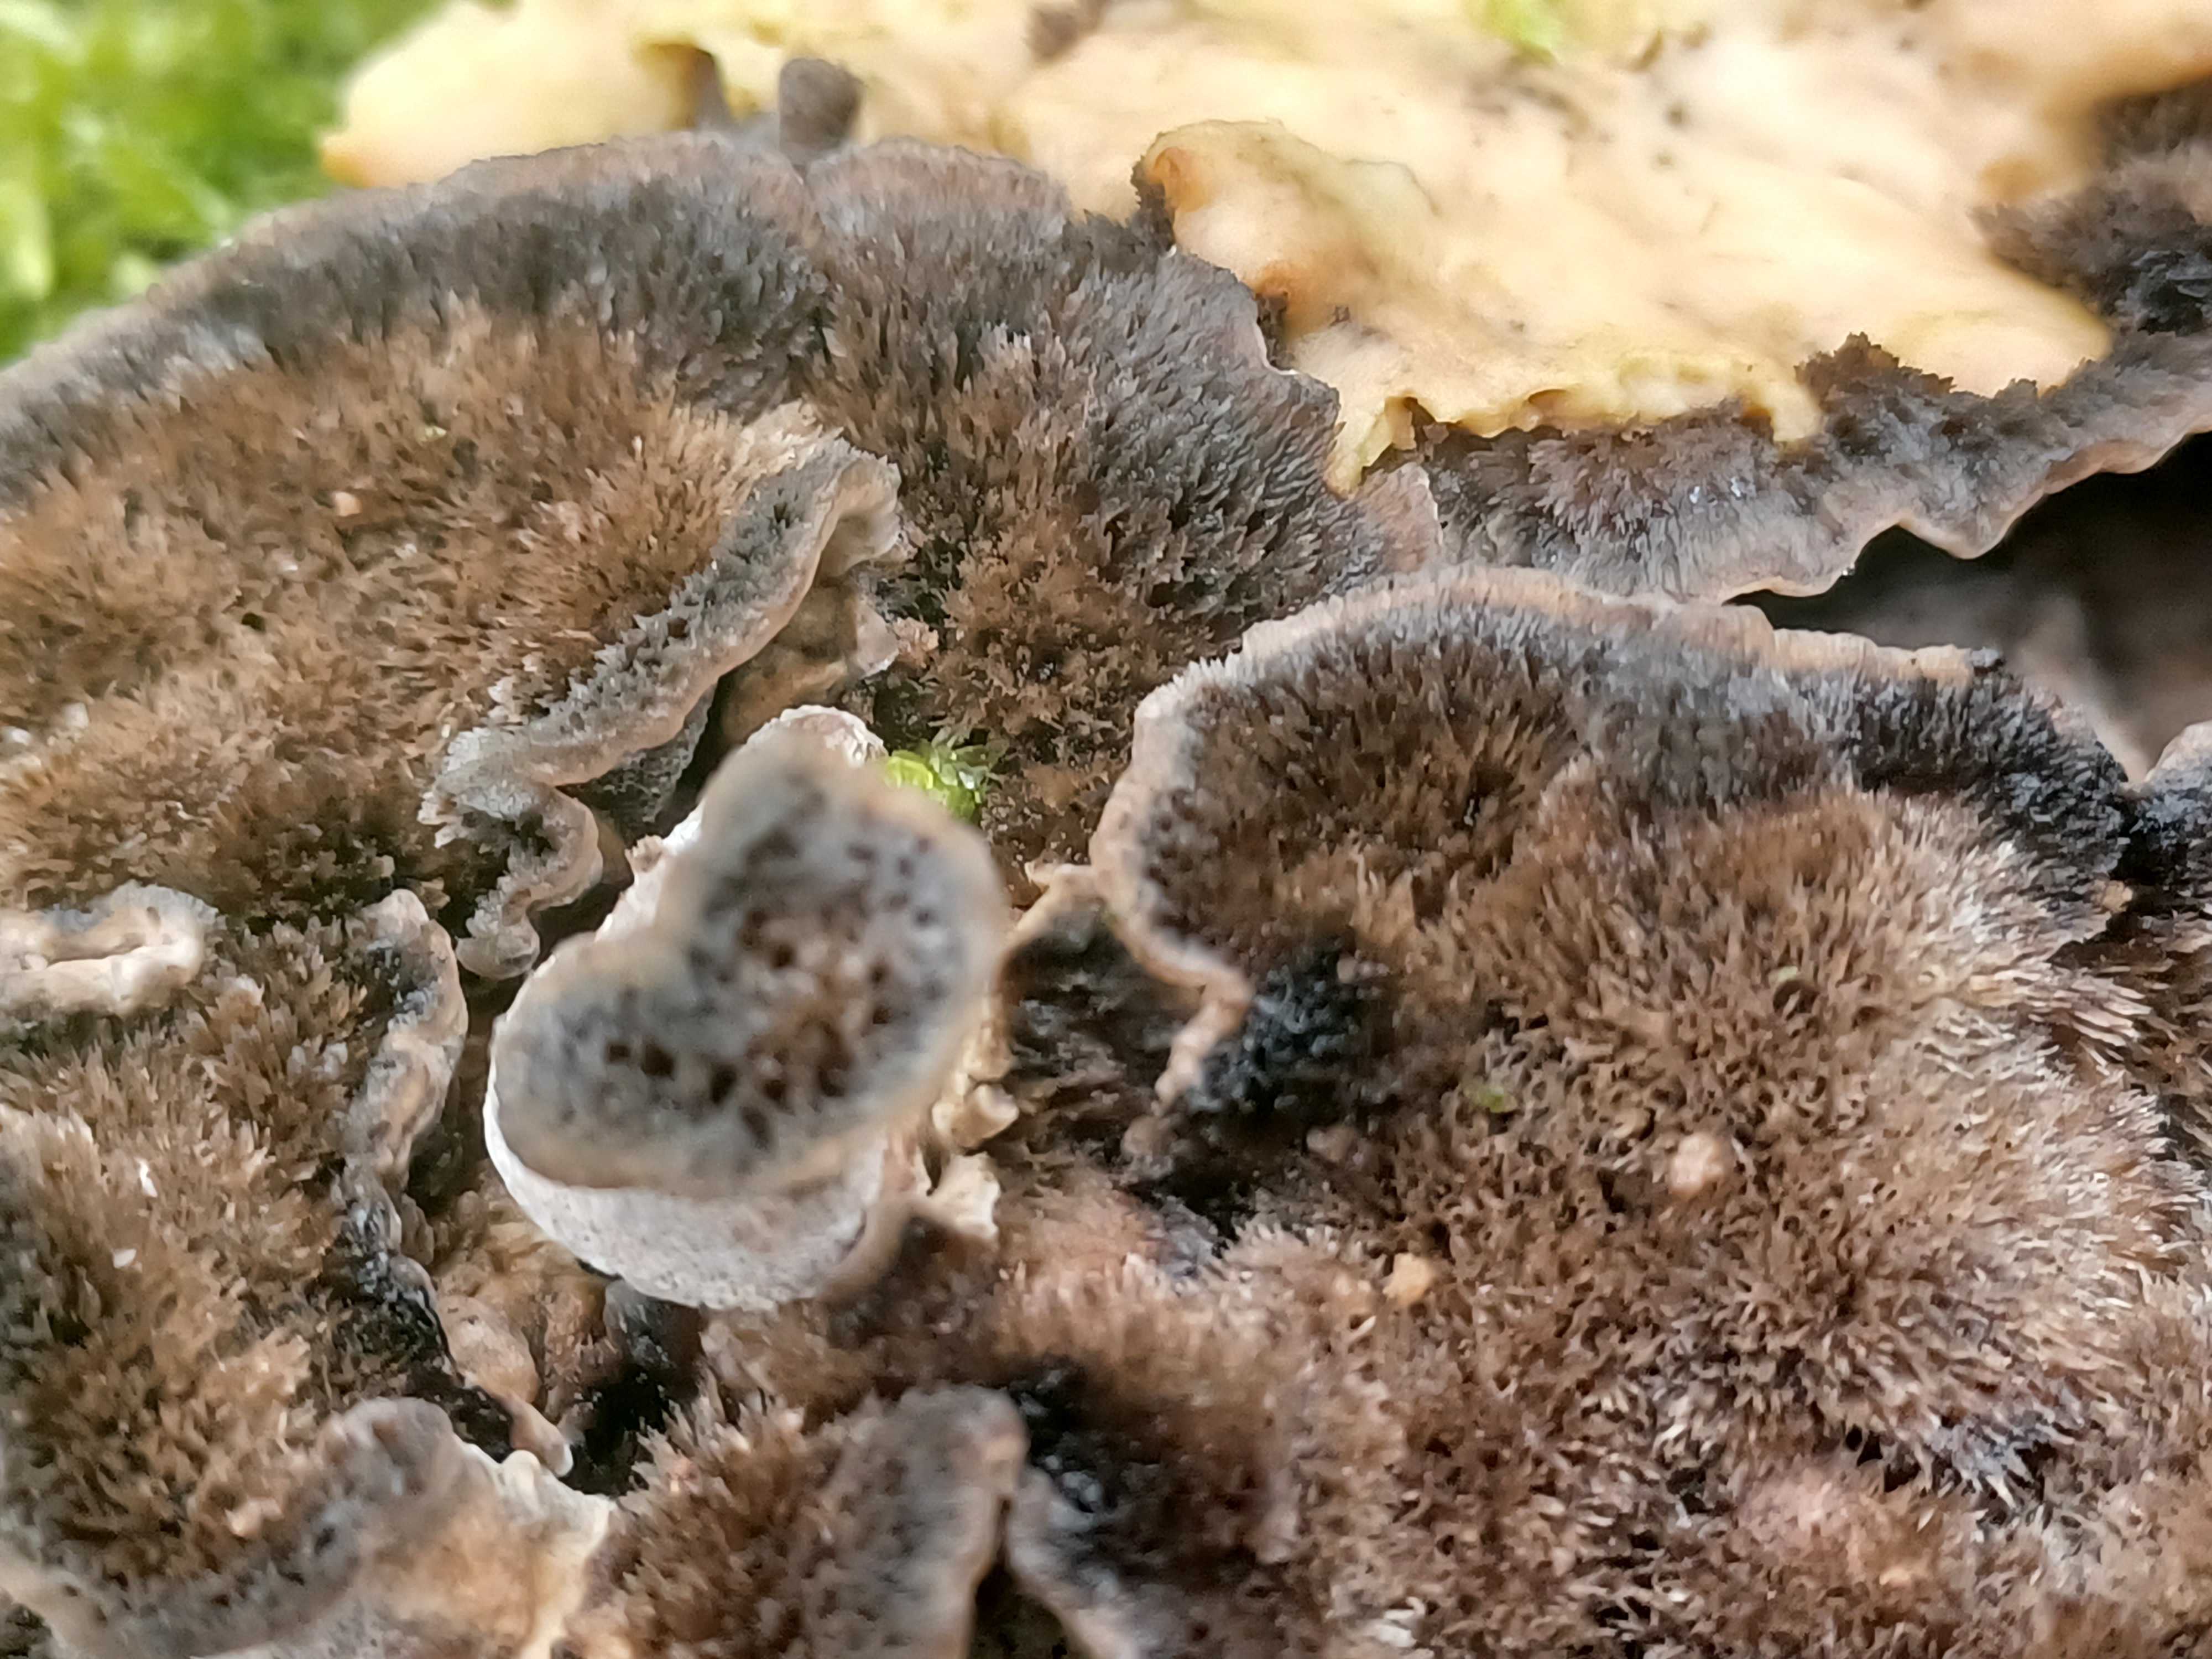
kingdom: Fungi
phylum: Basidiomycota
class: Agaricomycetes
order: Polyporales
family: Phanerochaetaceae
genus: Bjerkandera
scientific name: Bjerkandera adusta
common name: sveden sodporesvamp
